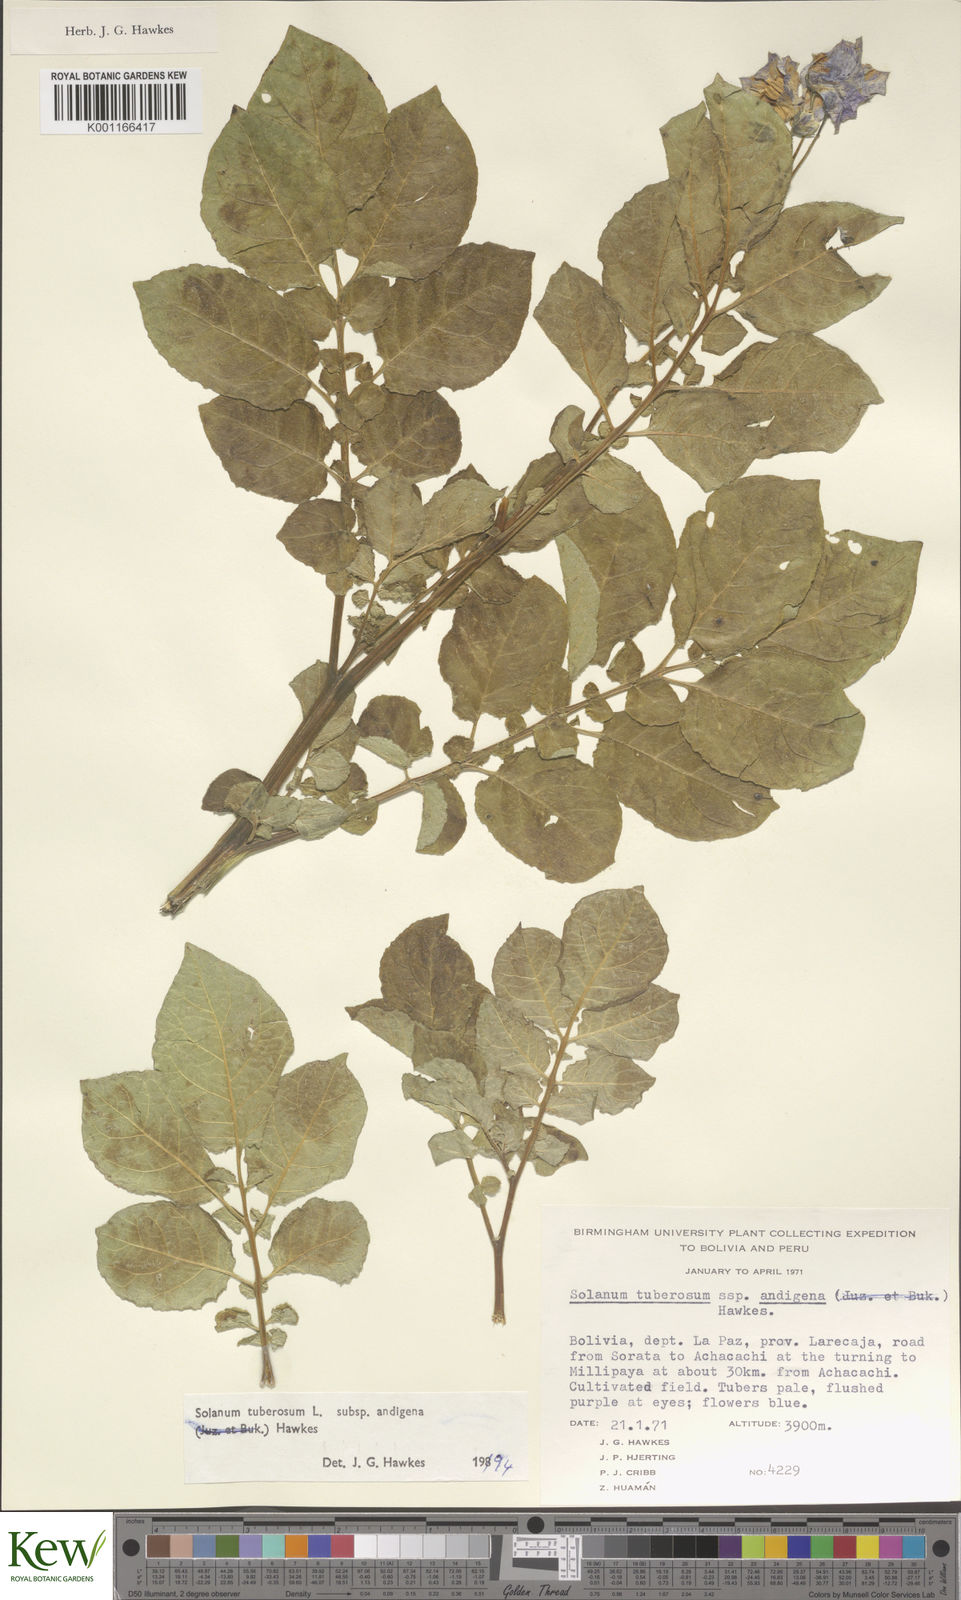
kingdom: Plantae
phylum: Tracheophyta
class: Magnoliopsida
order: Solanales
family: Solanaceae
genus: Solanum
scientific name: Solanum tuberosum
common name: Potato
